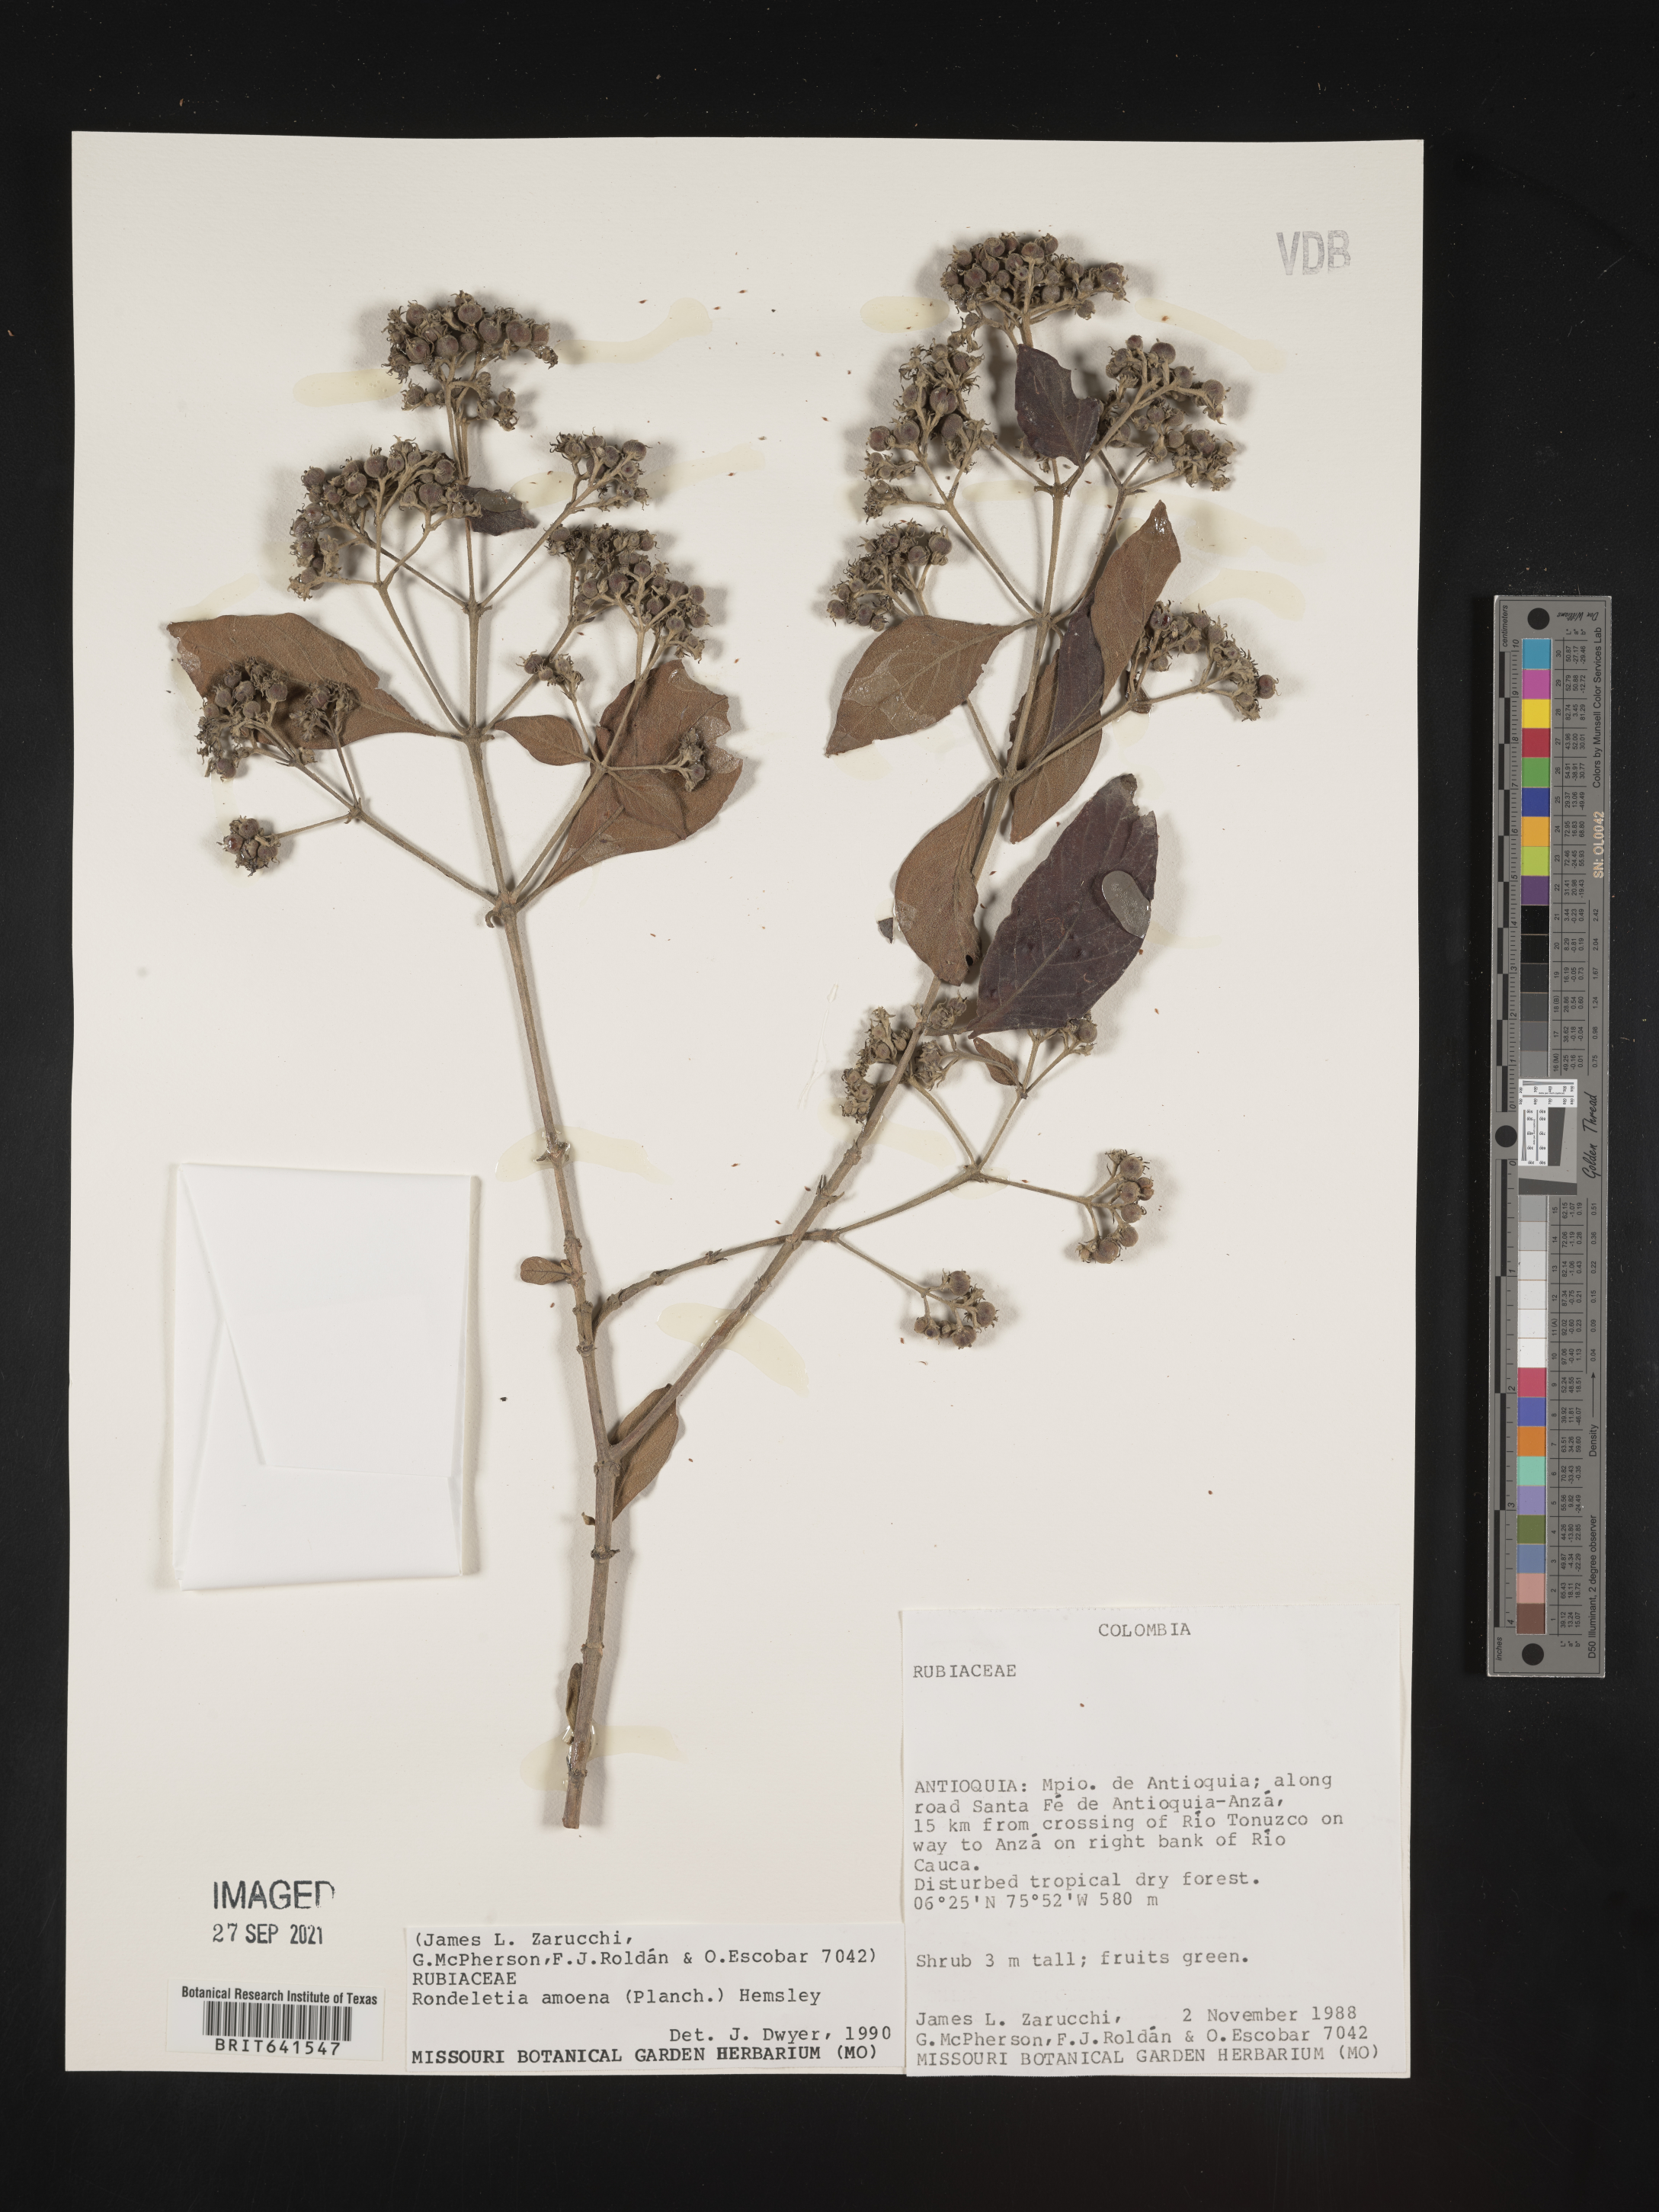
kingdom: Plantae
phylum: Tracheophyta
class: Magnoliopsida
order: Gentianales
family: Rubiaceae
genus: Rondeletia
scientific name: Rondeletia
